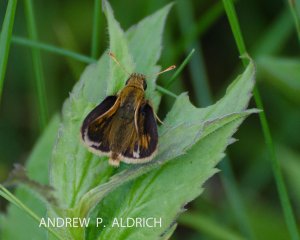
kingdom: Animalia
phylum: Arthropoda
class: Insecta
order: Lepidoptera
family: Hesperiidae
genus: Ancyloxypha
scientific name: Ancyloxypha numitor
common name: Least Skipper
